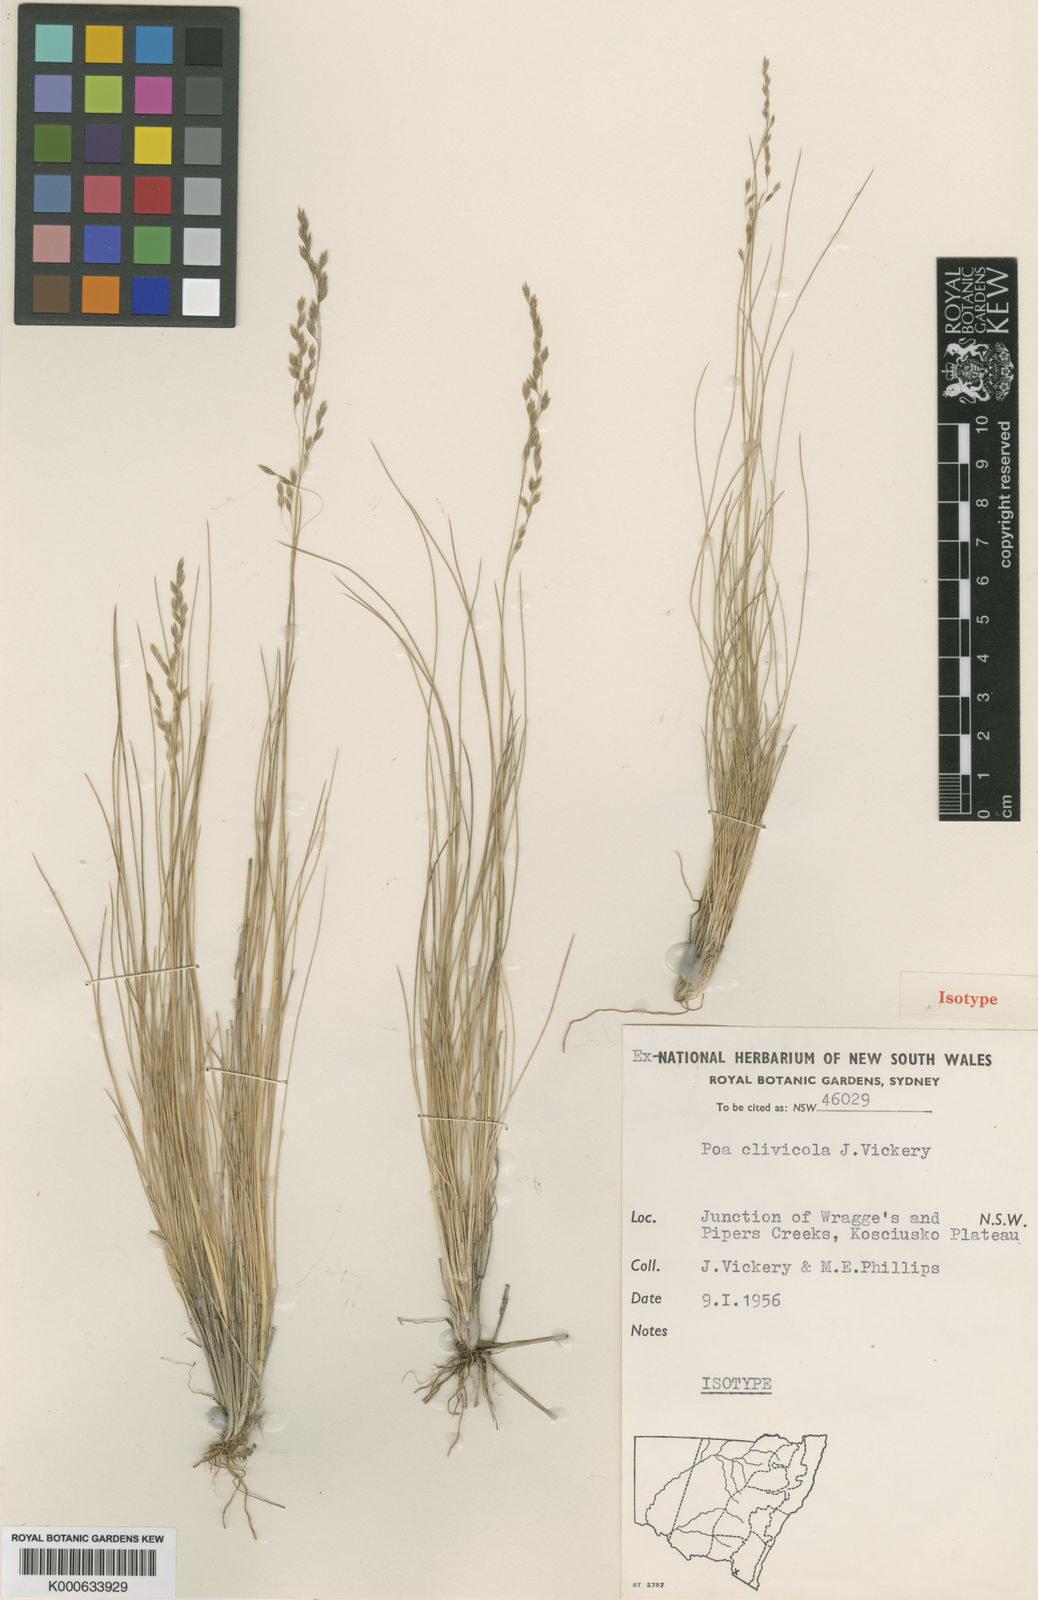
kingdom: Plantae
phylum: Tracheophyta
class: Liliopsida
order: Poales
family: Poaceae
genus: Poa
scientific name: Poa clivicola
